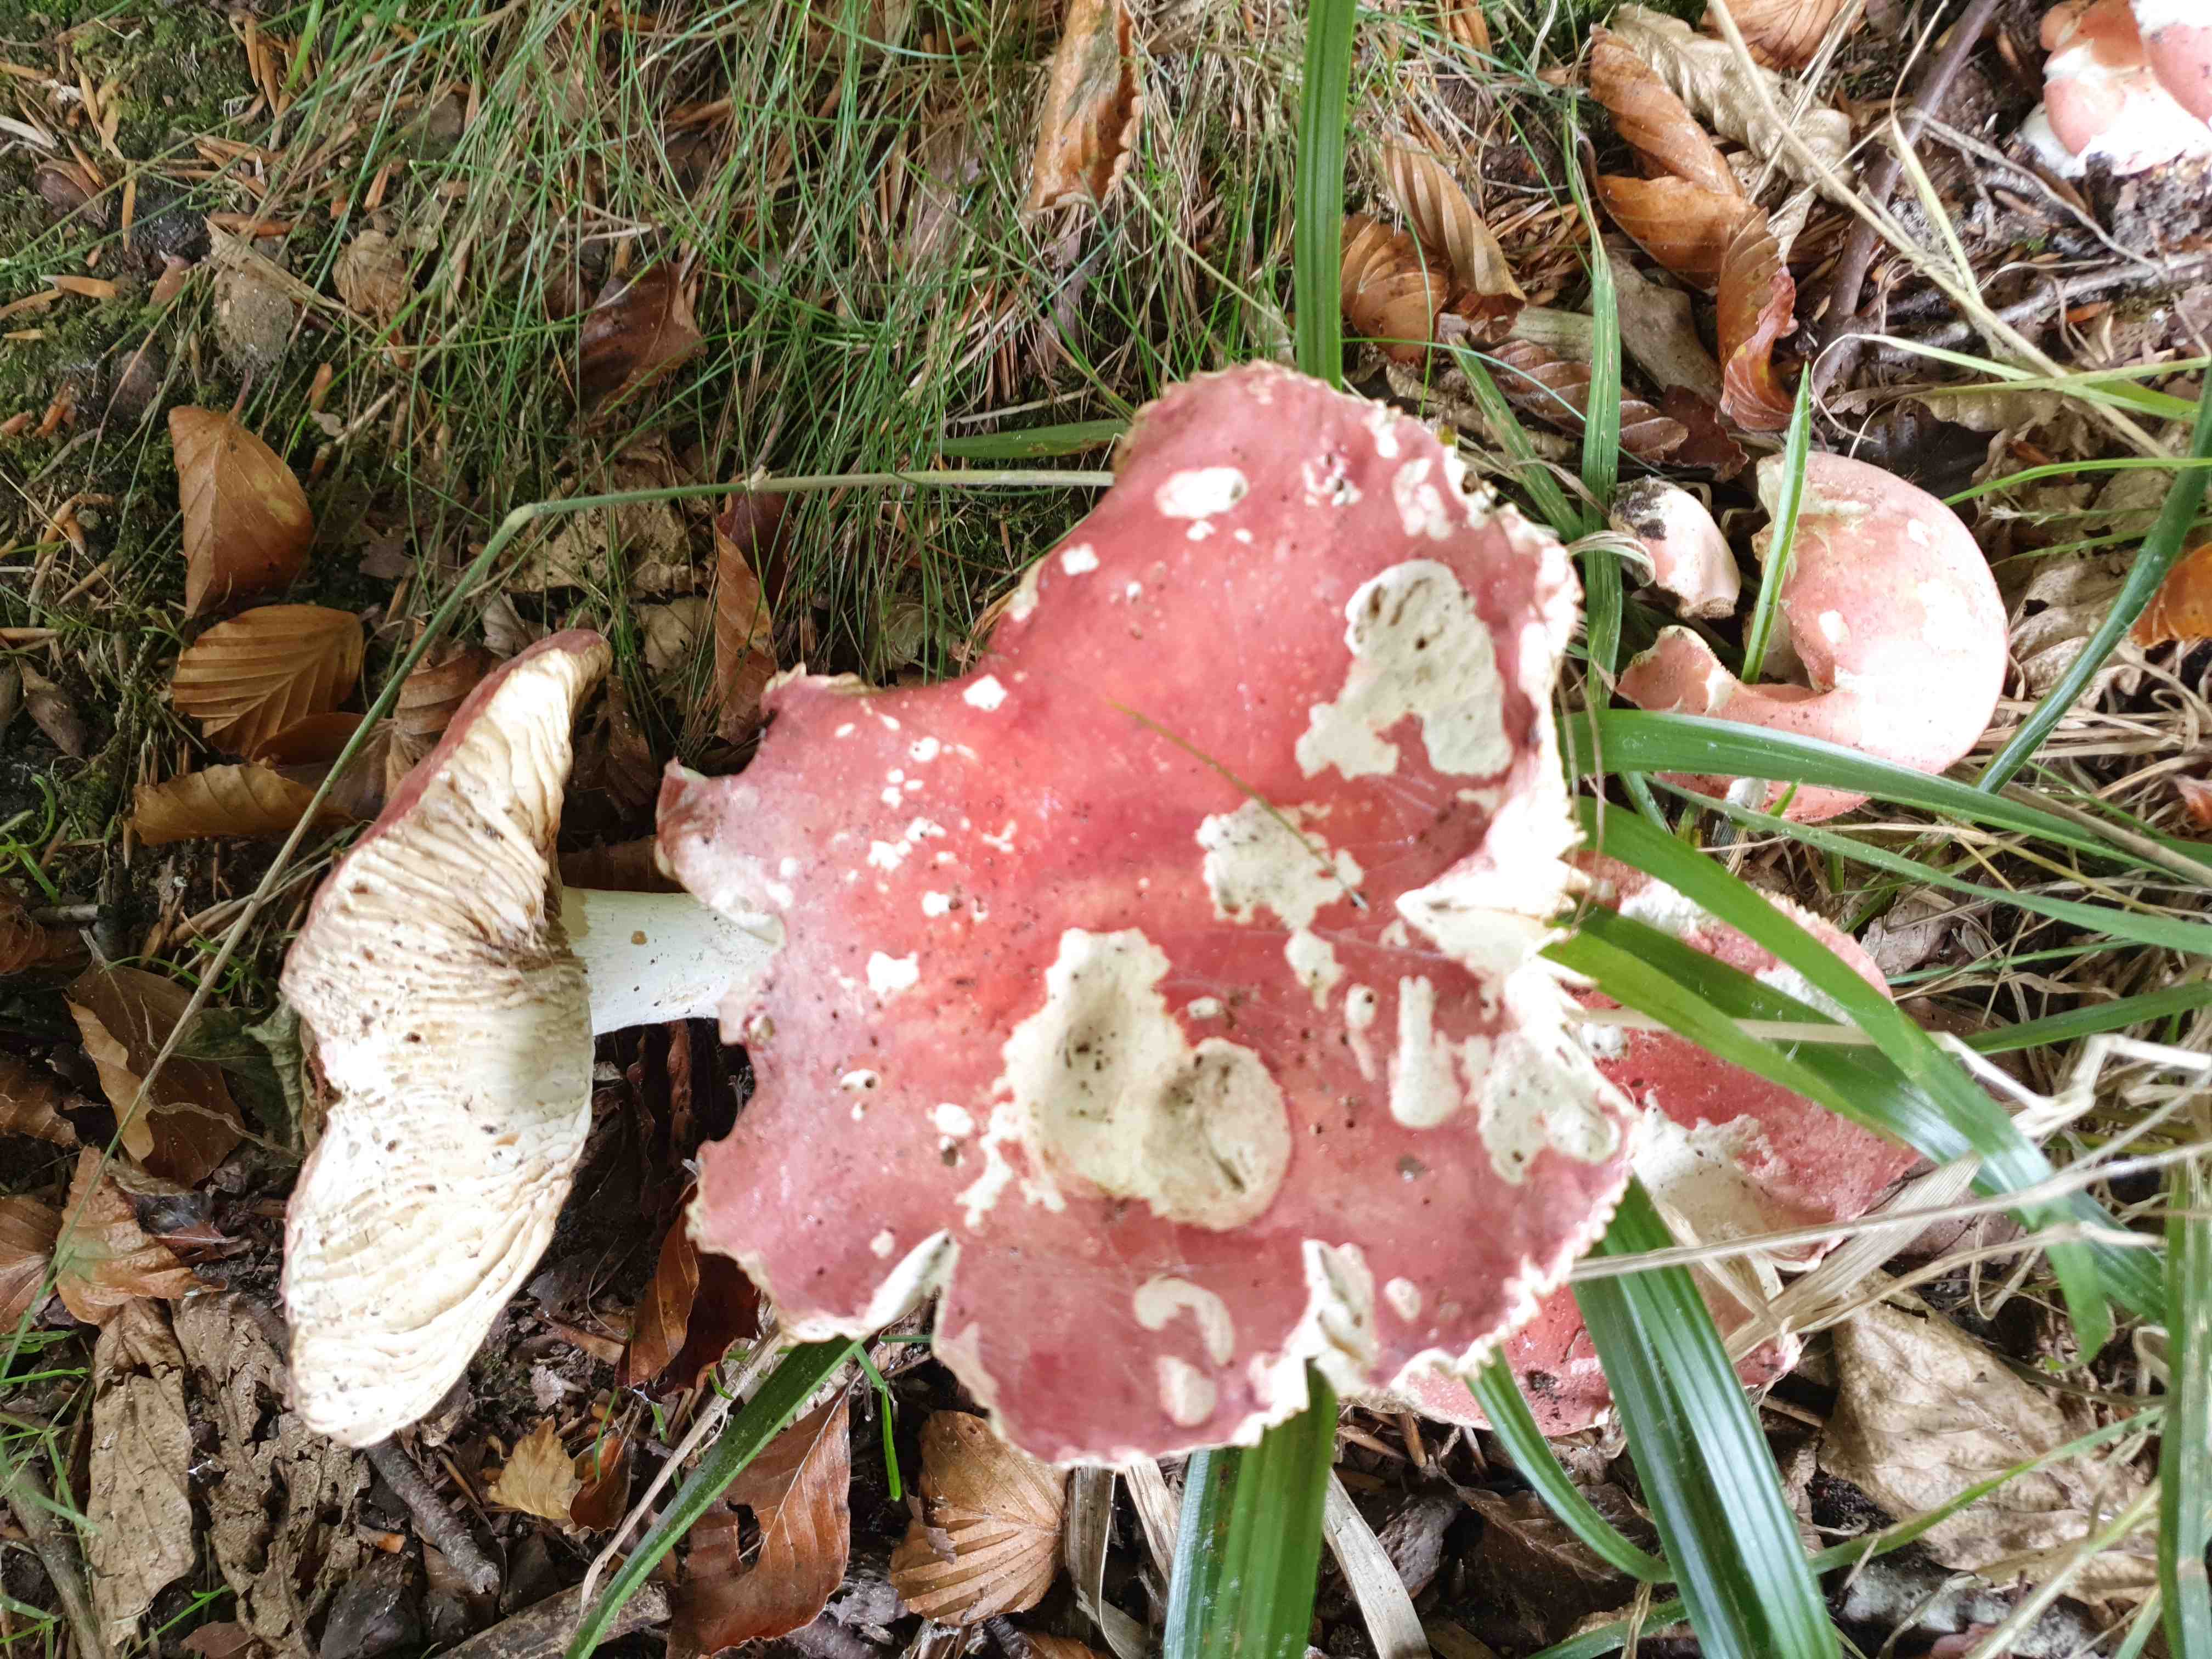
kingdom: Fungi
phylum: Basidiomycota
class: Agaricomycetes
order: Russulales
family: Russulaceae
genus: Russula
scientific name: Russula rosea
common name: fastkødet skørhat
